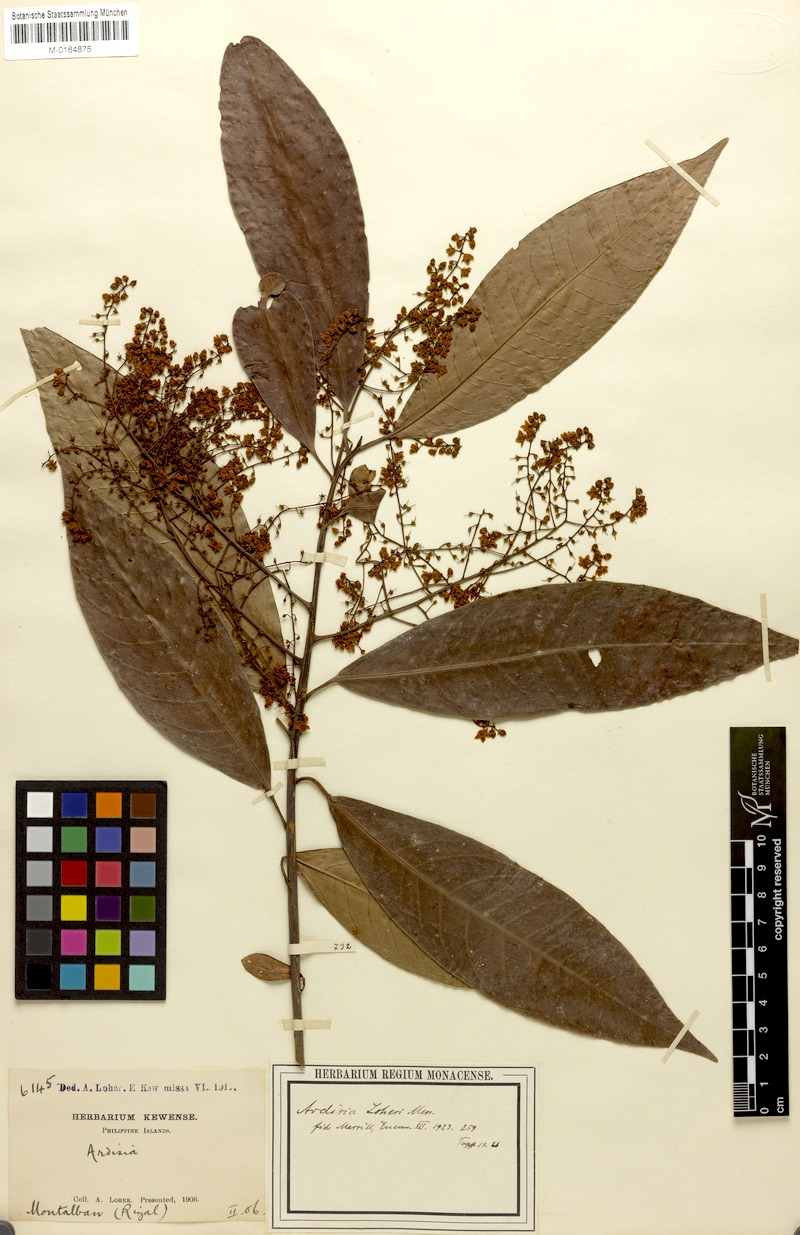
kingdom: Plantae
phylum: Tracheophyta
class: Magnoliopsida
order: Ericales
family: Primulaceae
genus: Ardisia
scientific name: Ardisia loheri
